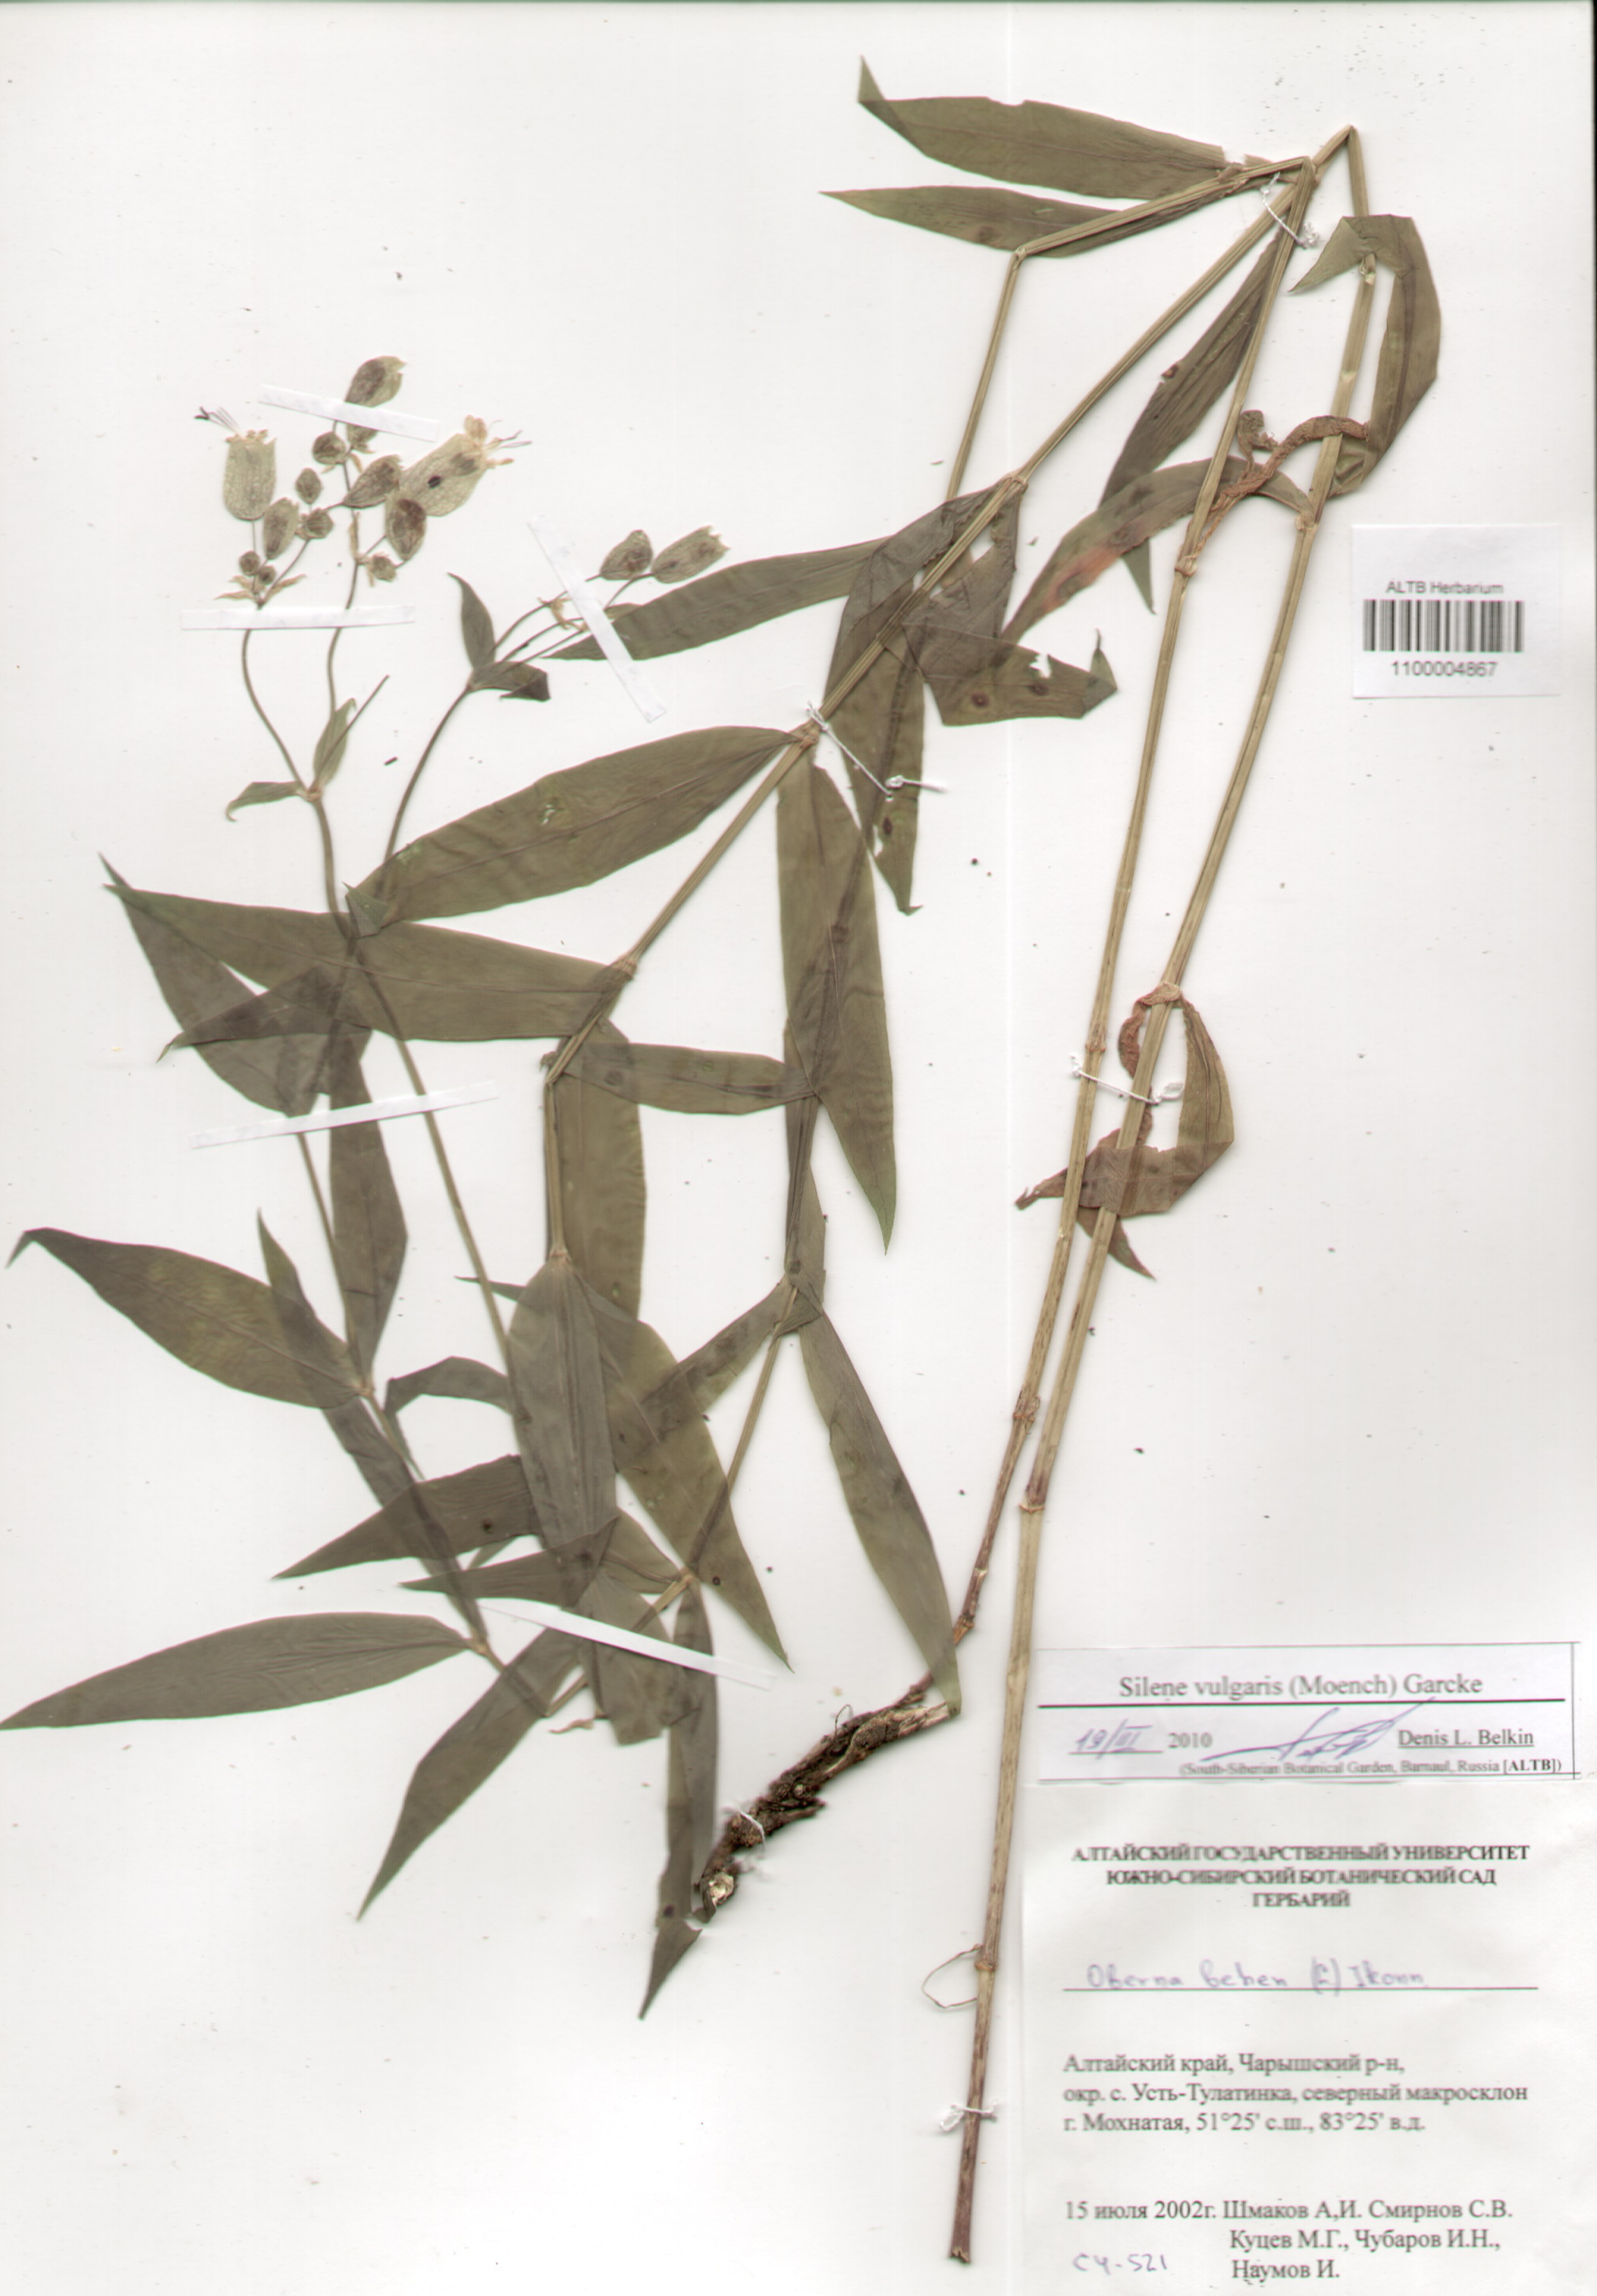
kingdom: Plantae
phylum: Tracheophyta
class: Magnoliopsida
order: Caryophyllales
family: Caryophyllaceae
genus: Silene
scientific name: Silene vulgaris
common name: Bladder campion
